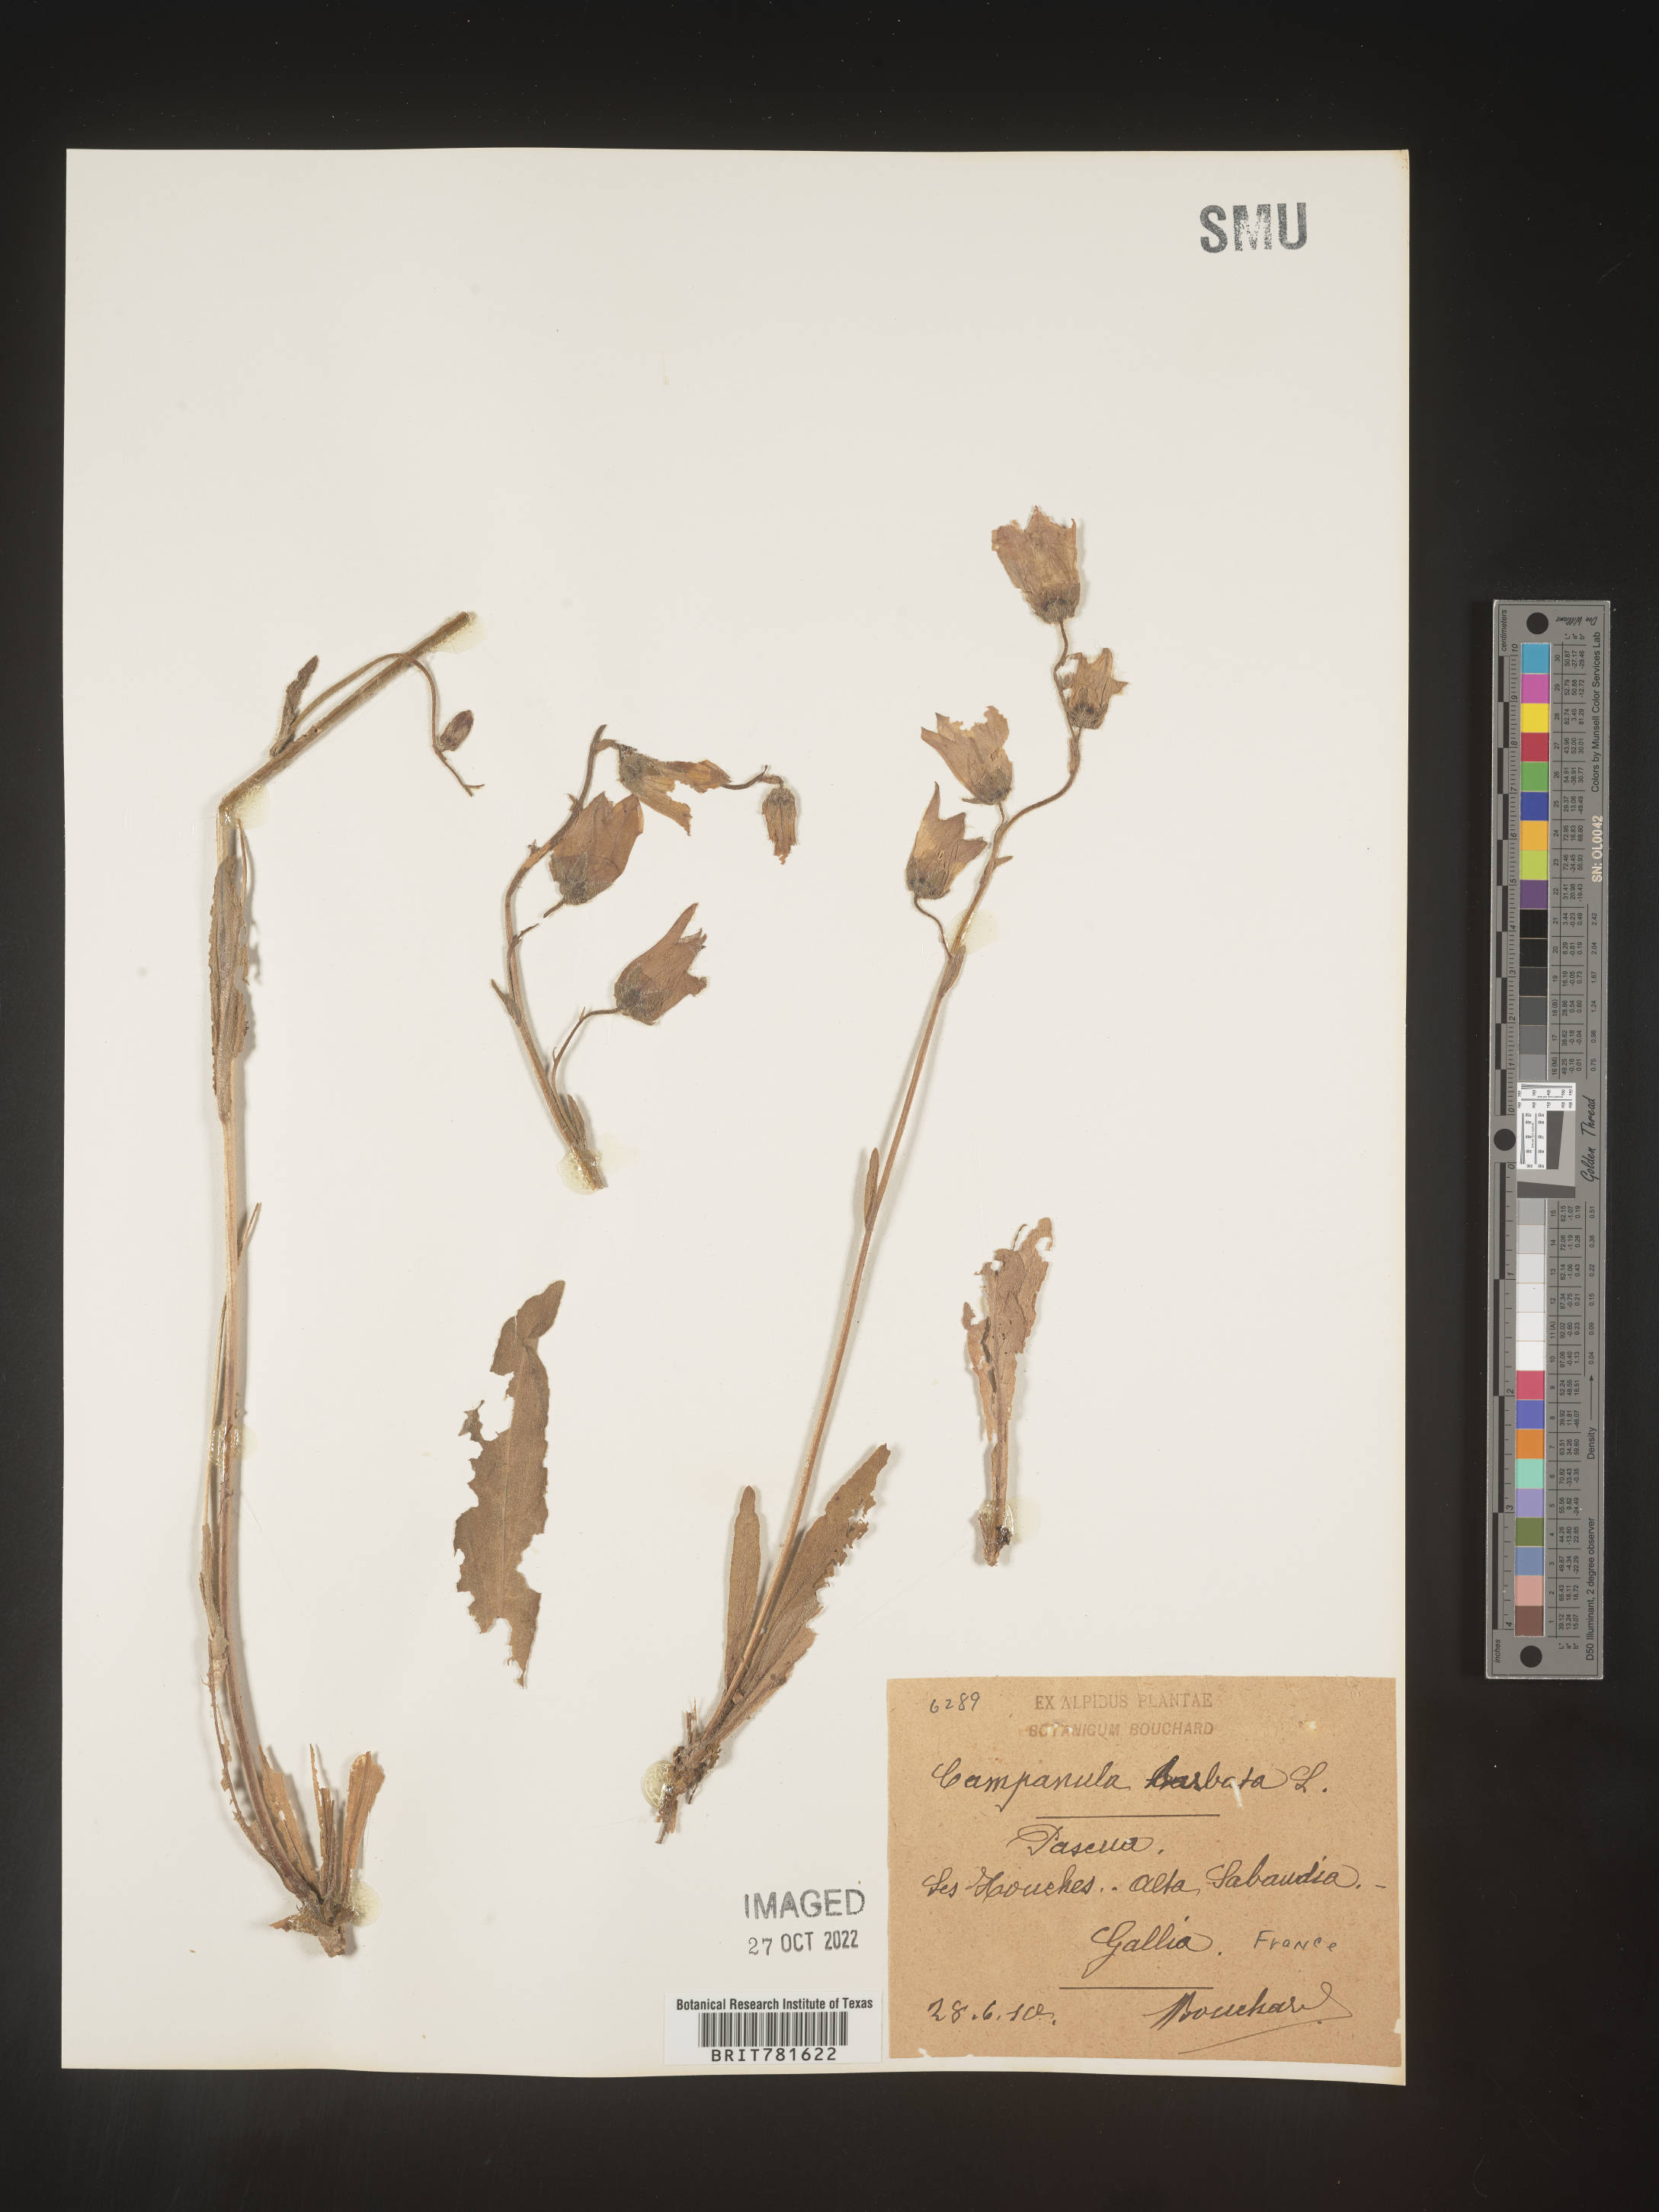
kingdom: Plantae
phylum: Tracheophyta
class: Magnoliopsida
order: Asterales
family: Campanulaceae
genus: Campanula
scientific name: Campanula
